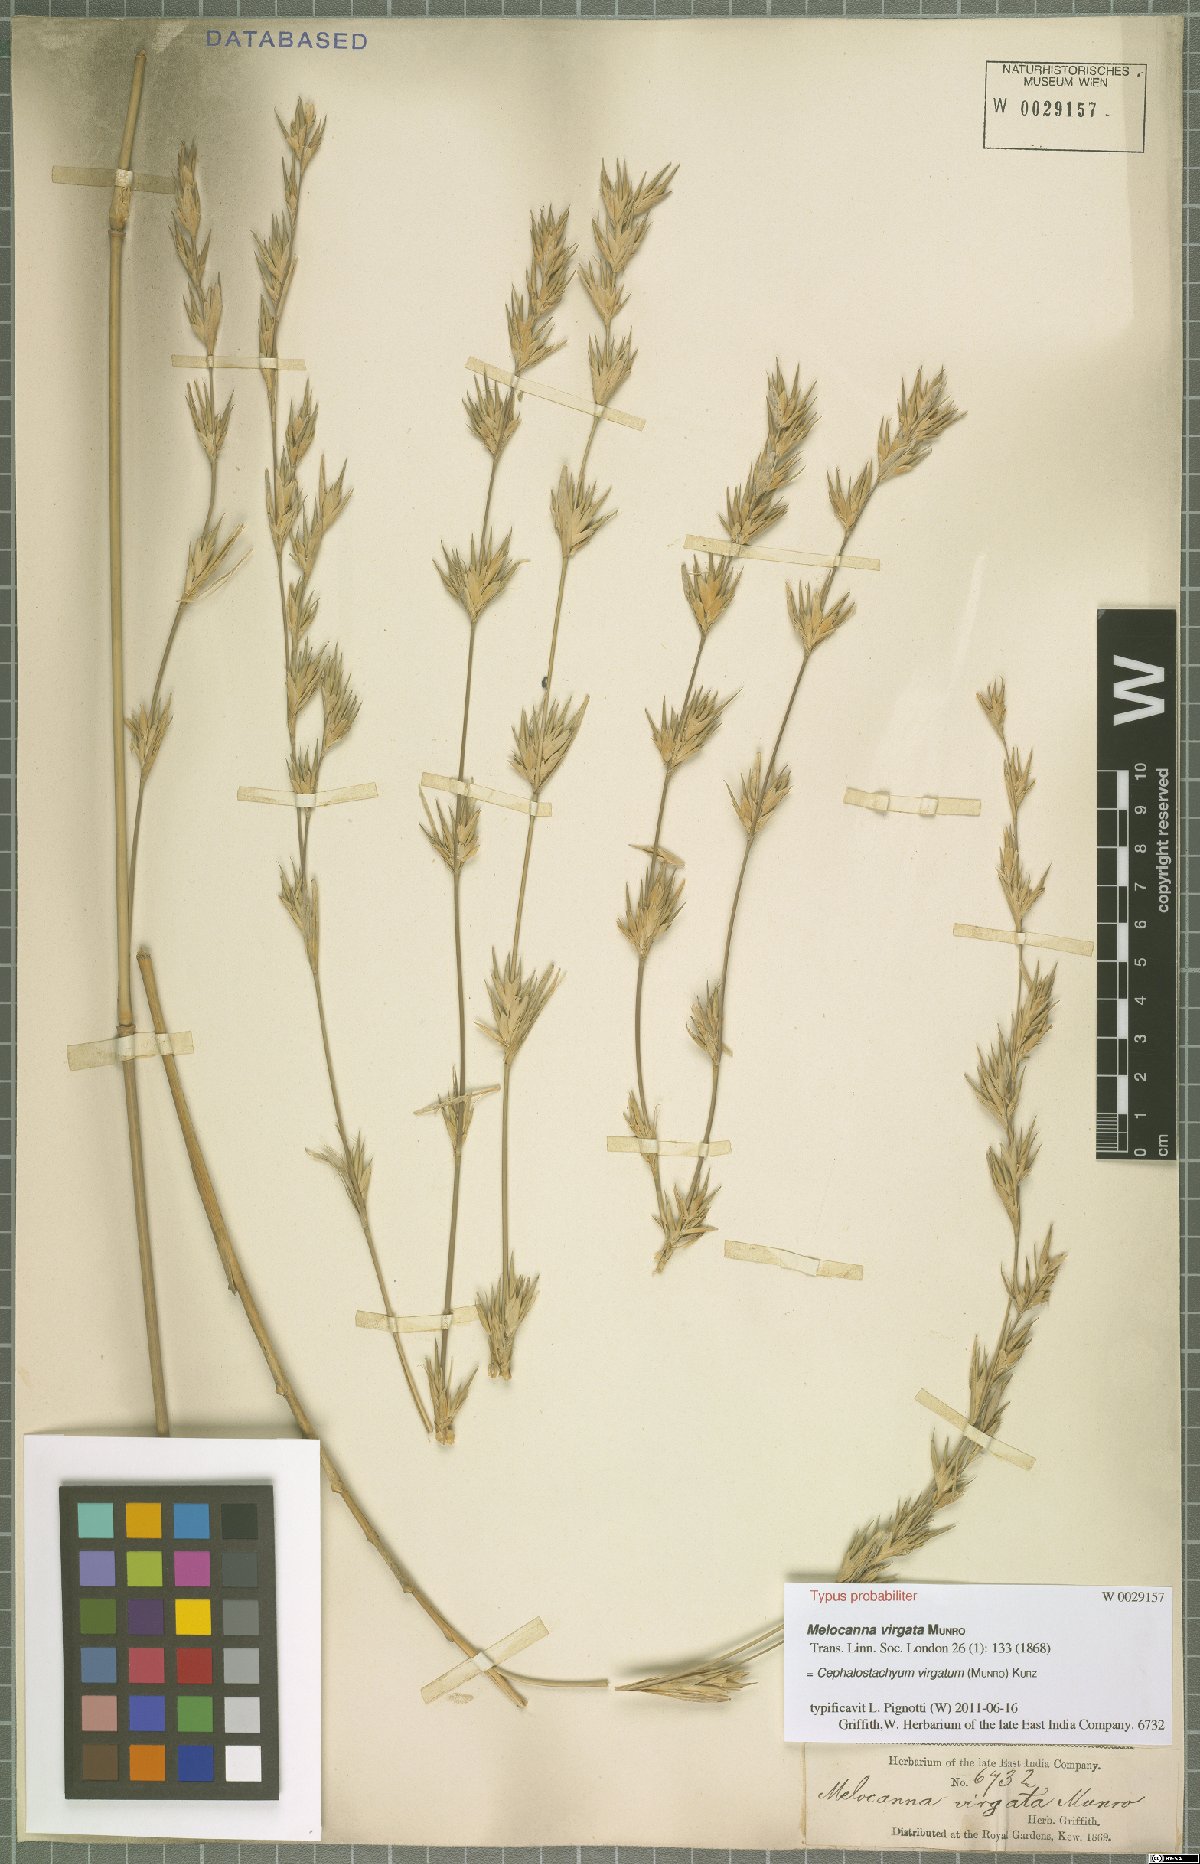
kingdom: Plantae
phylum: Tracheophyta
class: Liliopsida
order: Poales
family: Poaceae
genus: Schizostachyum
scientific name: Schizostachyum virgatum
